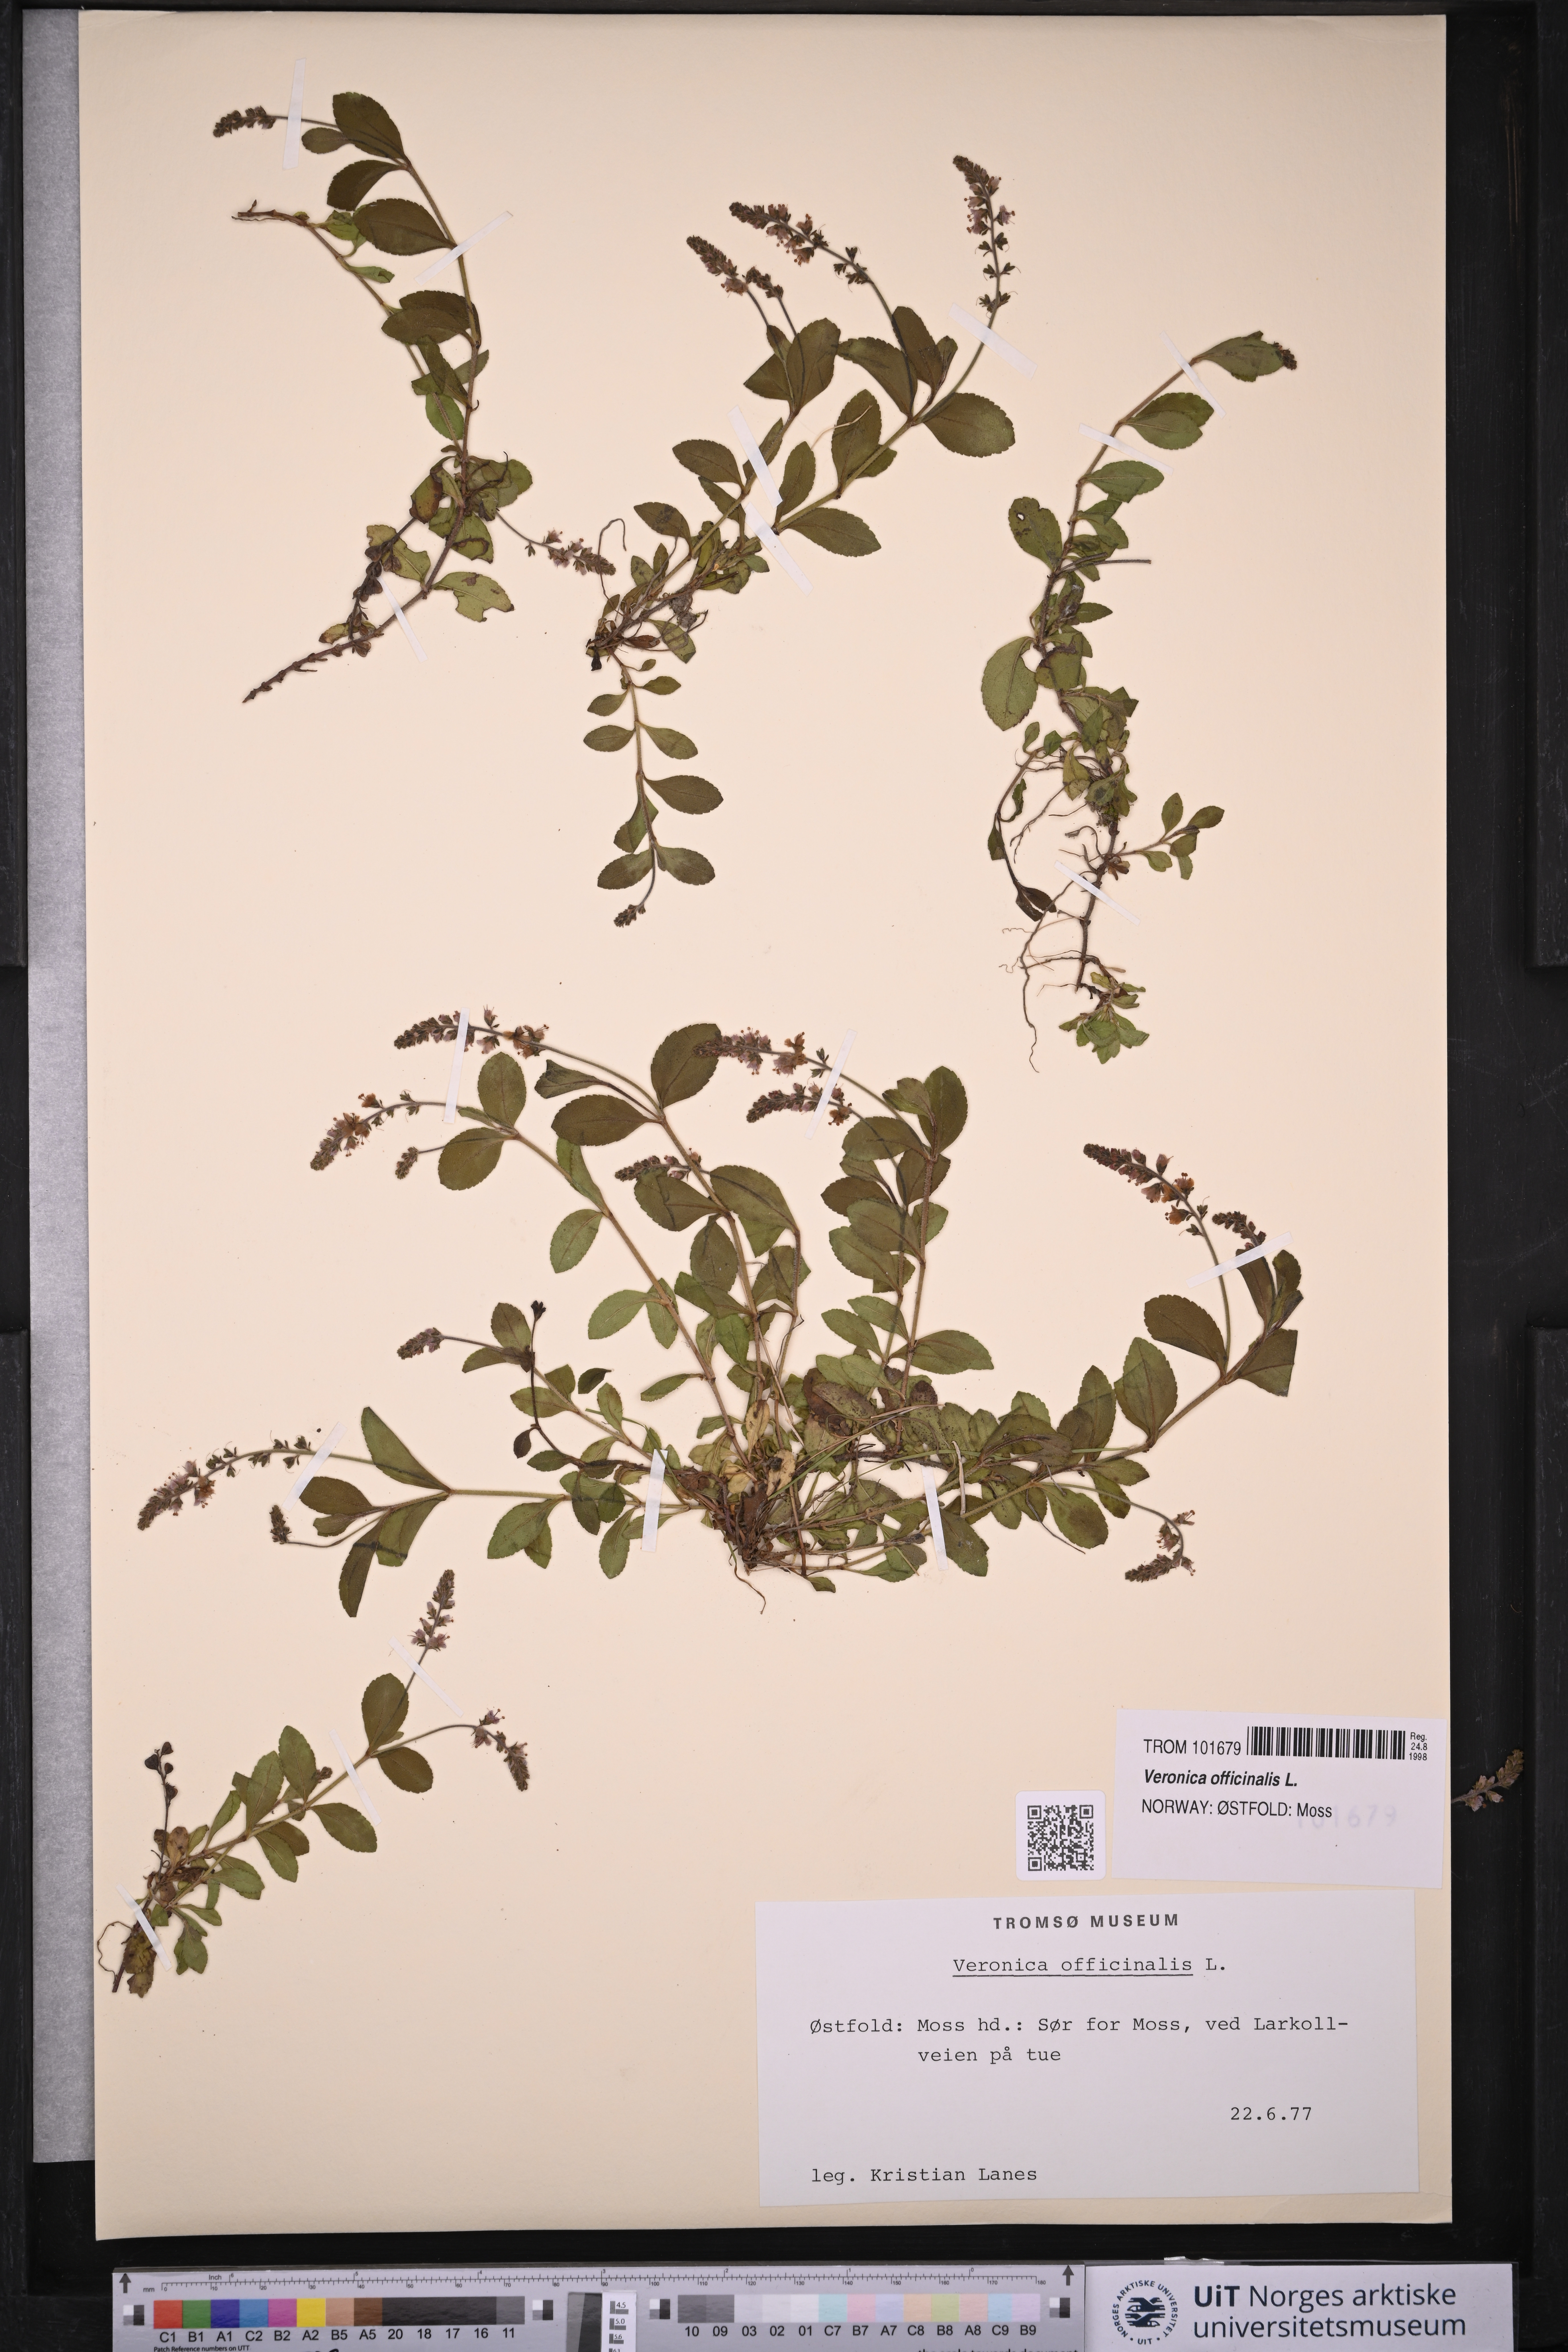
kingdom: Plantae
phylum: Tracheophyta
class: Magnoliopsida
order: Lamiales
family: Plantaginaceae
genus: Veronica
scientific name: Veronica officinalis
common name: Common speedwell
